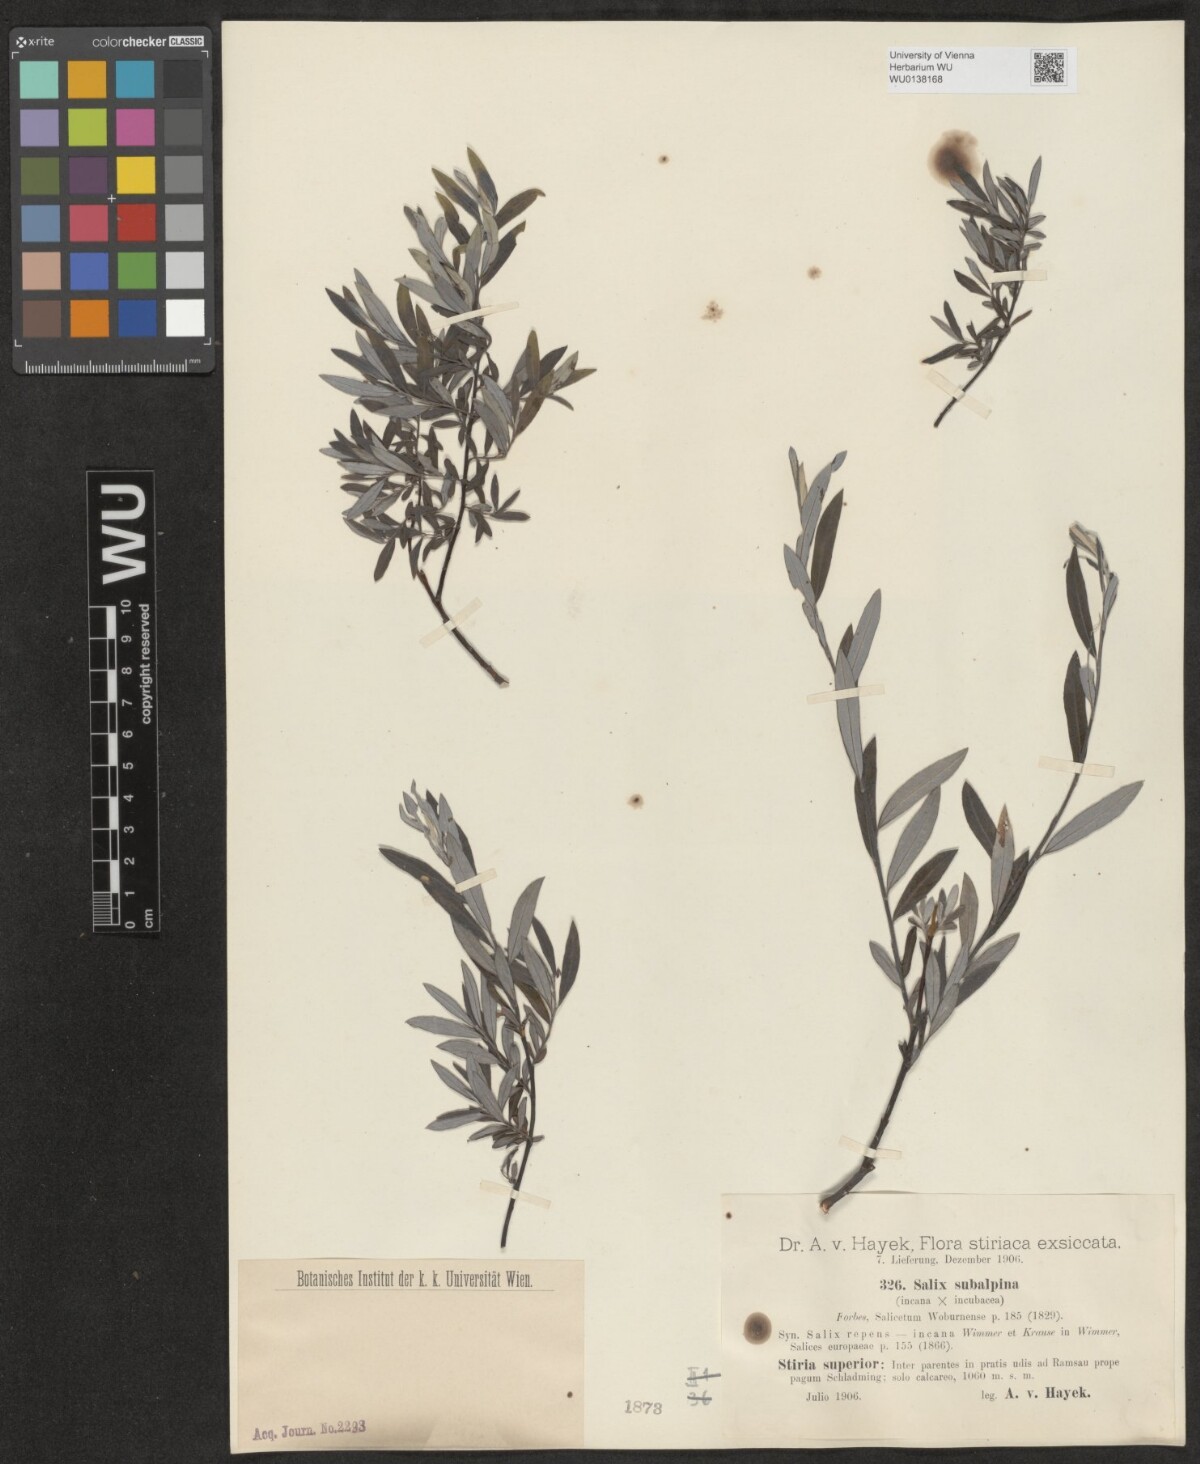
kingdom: Plantae
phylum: Tracheophyta
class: Magnoliopsida
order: Malpighiales
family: Salicaceae
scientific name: Salicaceae
